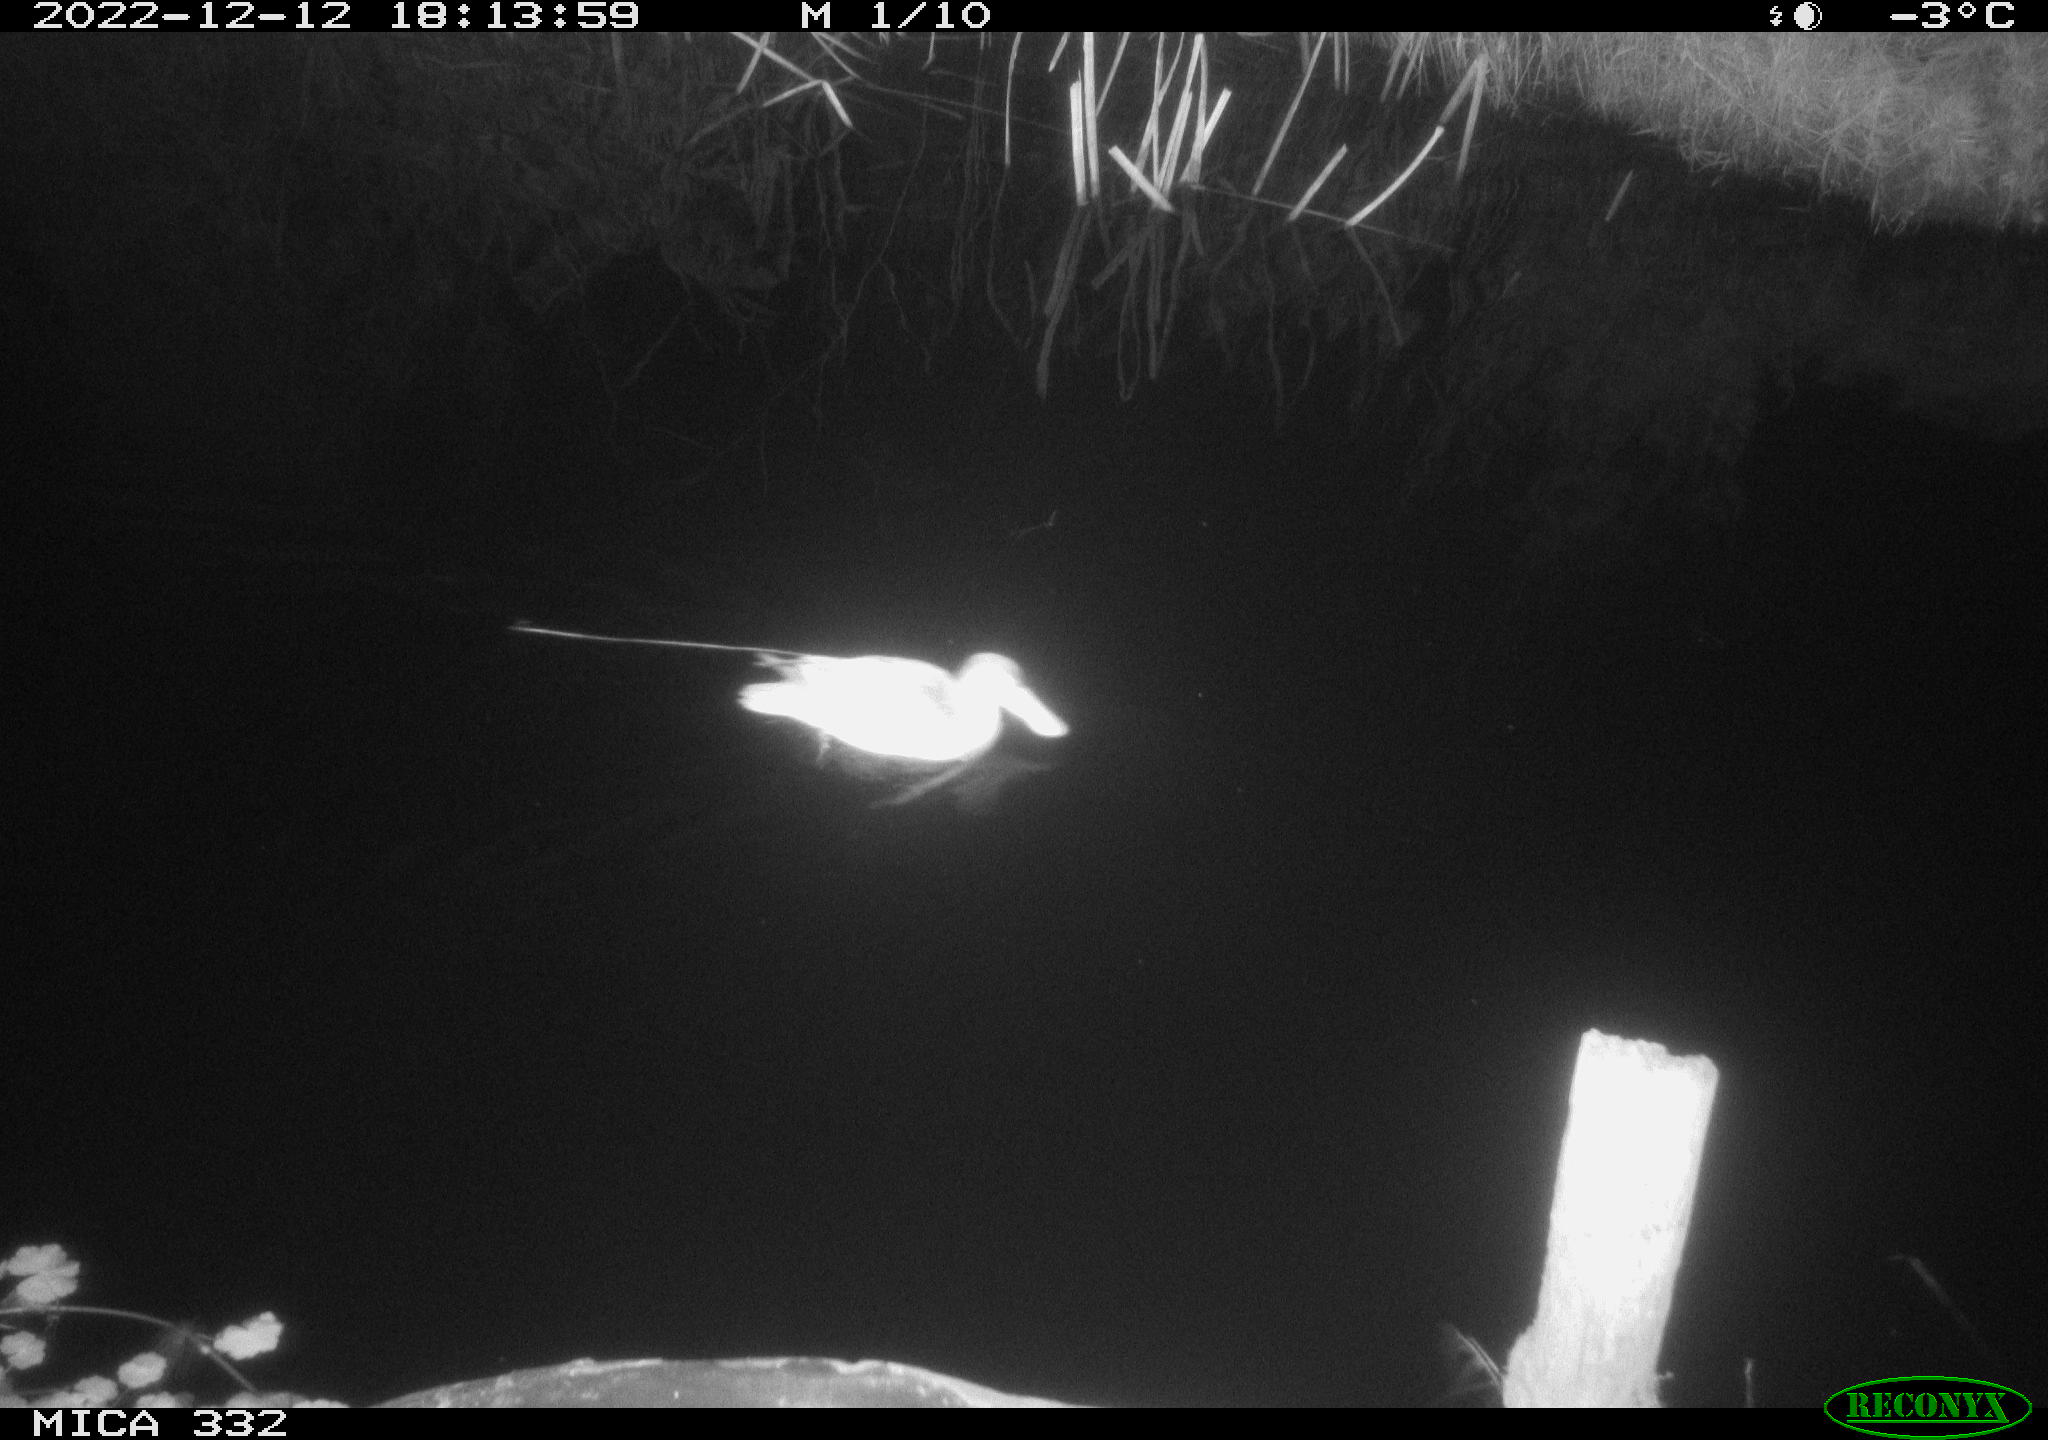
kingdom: Animalia
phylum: Chordata
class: Aves
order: Anseriformes
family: Anatidae
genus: Anas
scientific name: Anas
